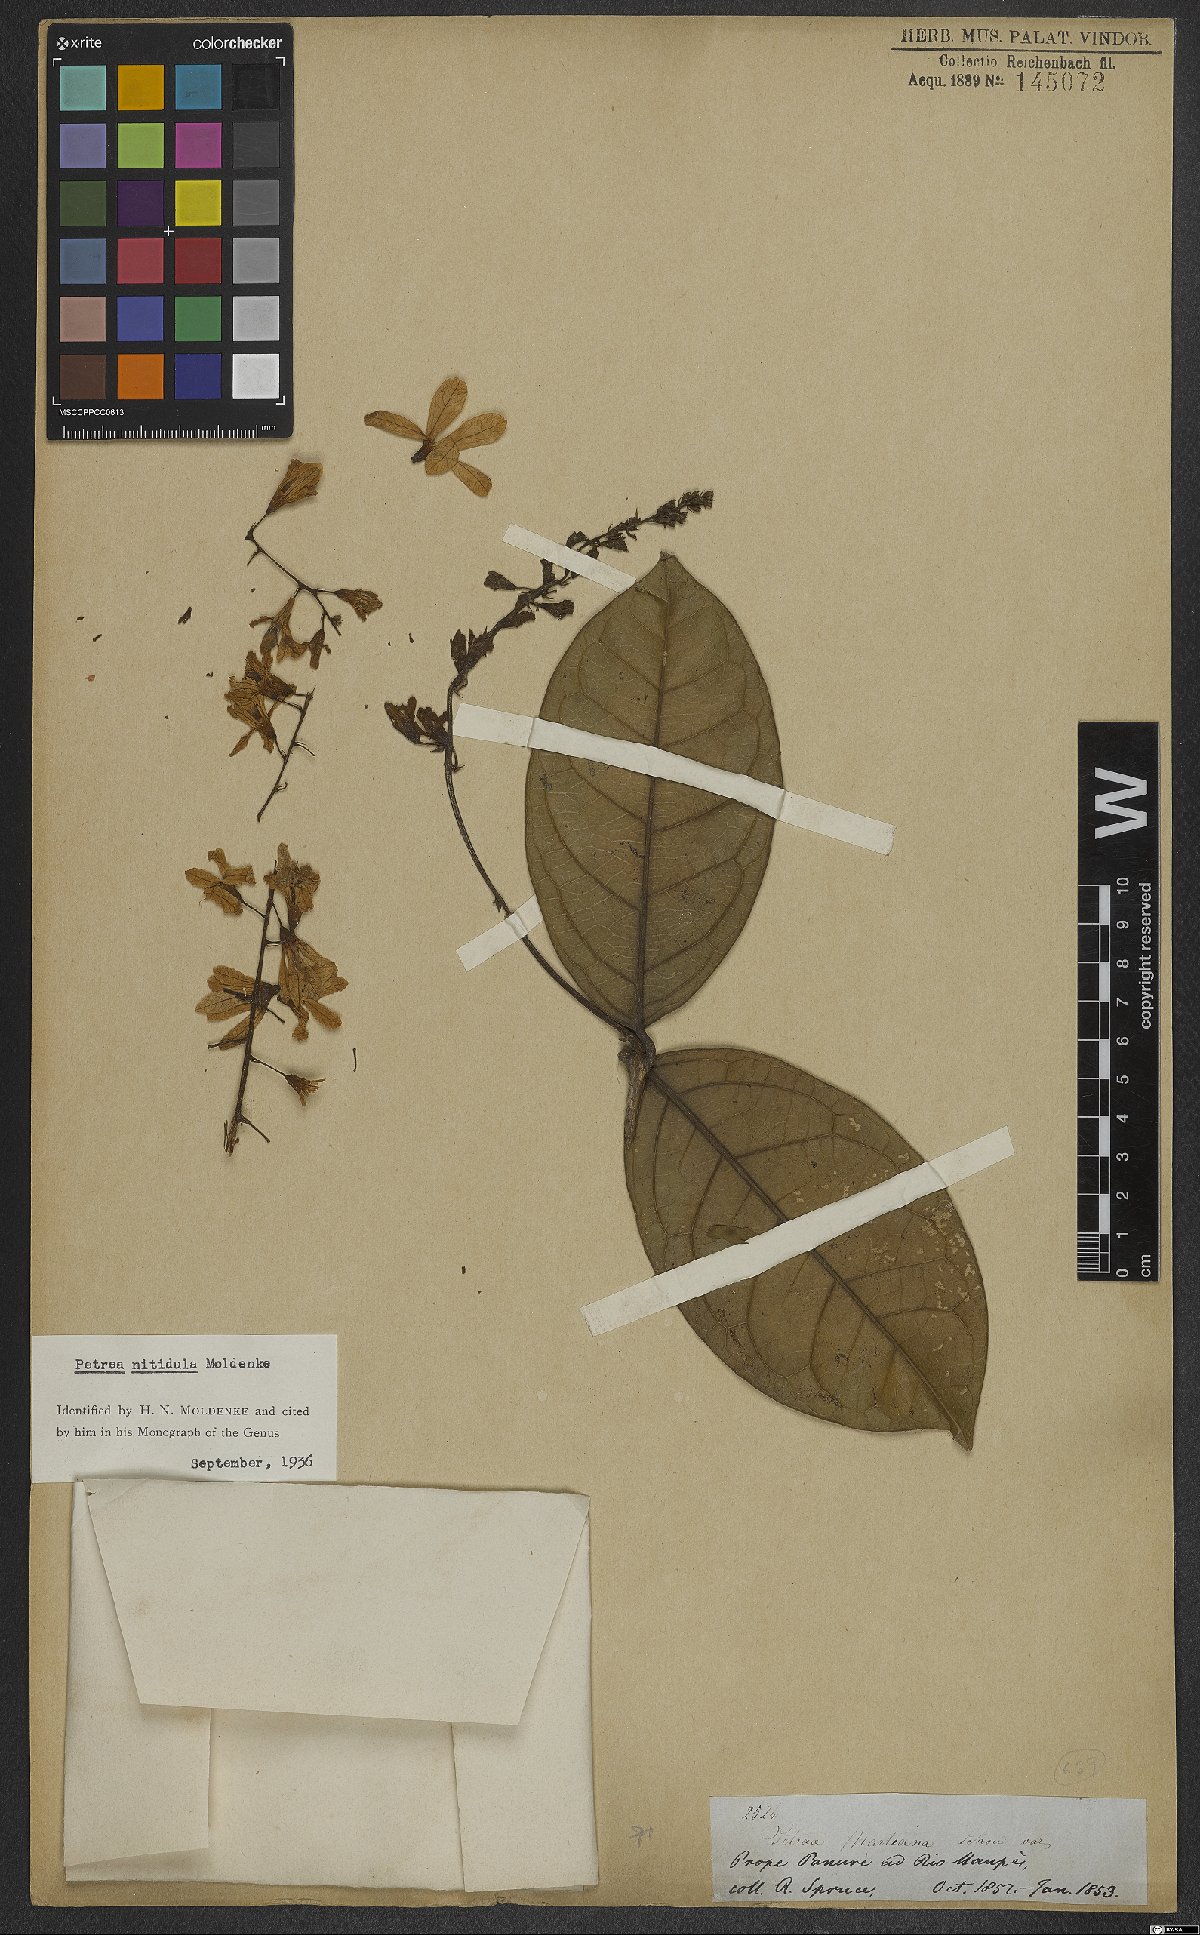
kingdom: Plantae
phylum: Tracheophyta
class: Magnoliopsida
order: Lamiales
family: Verbenaceae
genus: Petrea
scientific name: Petrea volubilis
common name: Queen's-wreath
